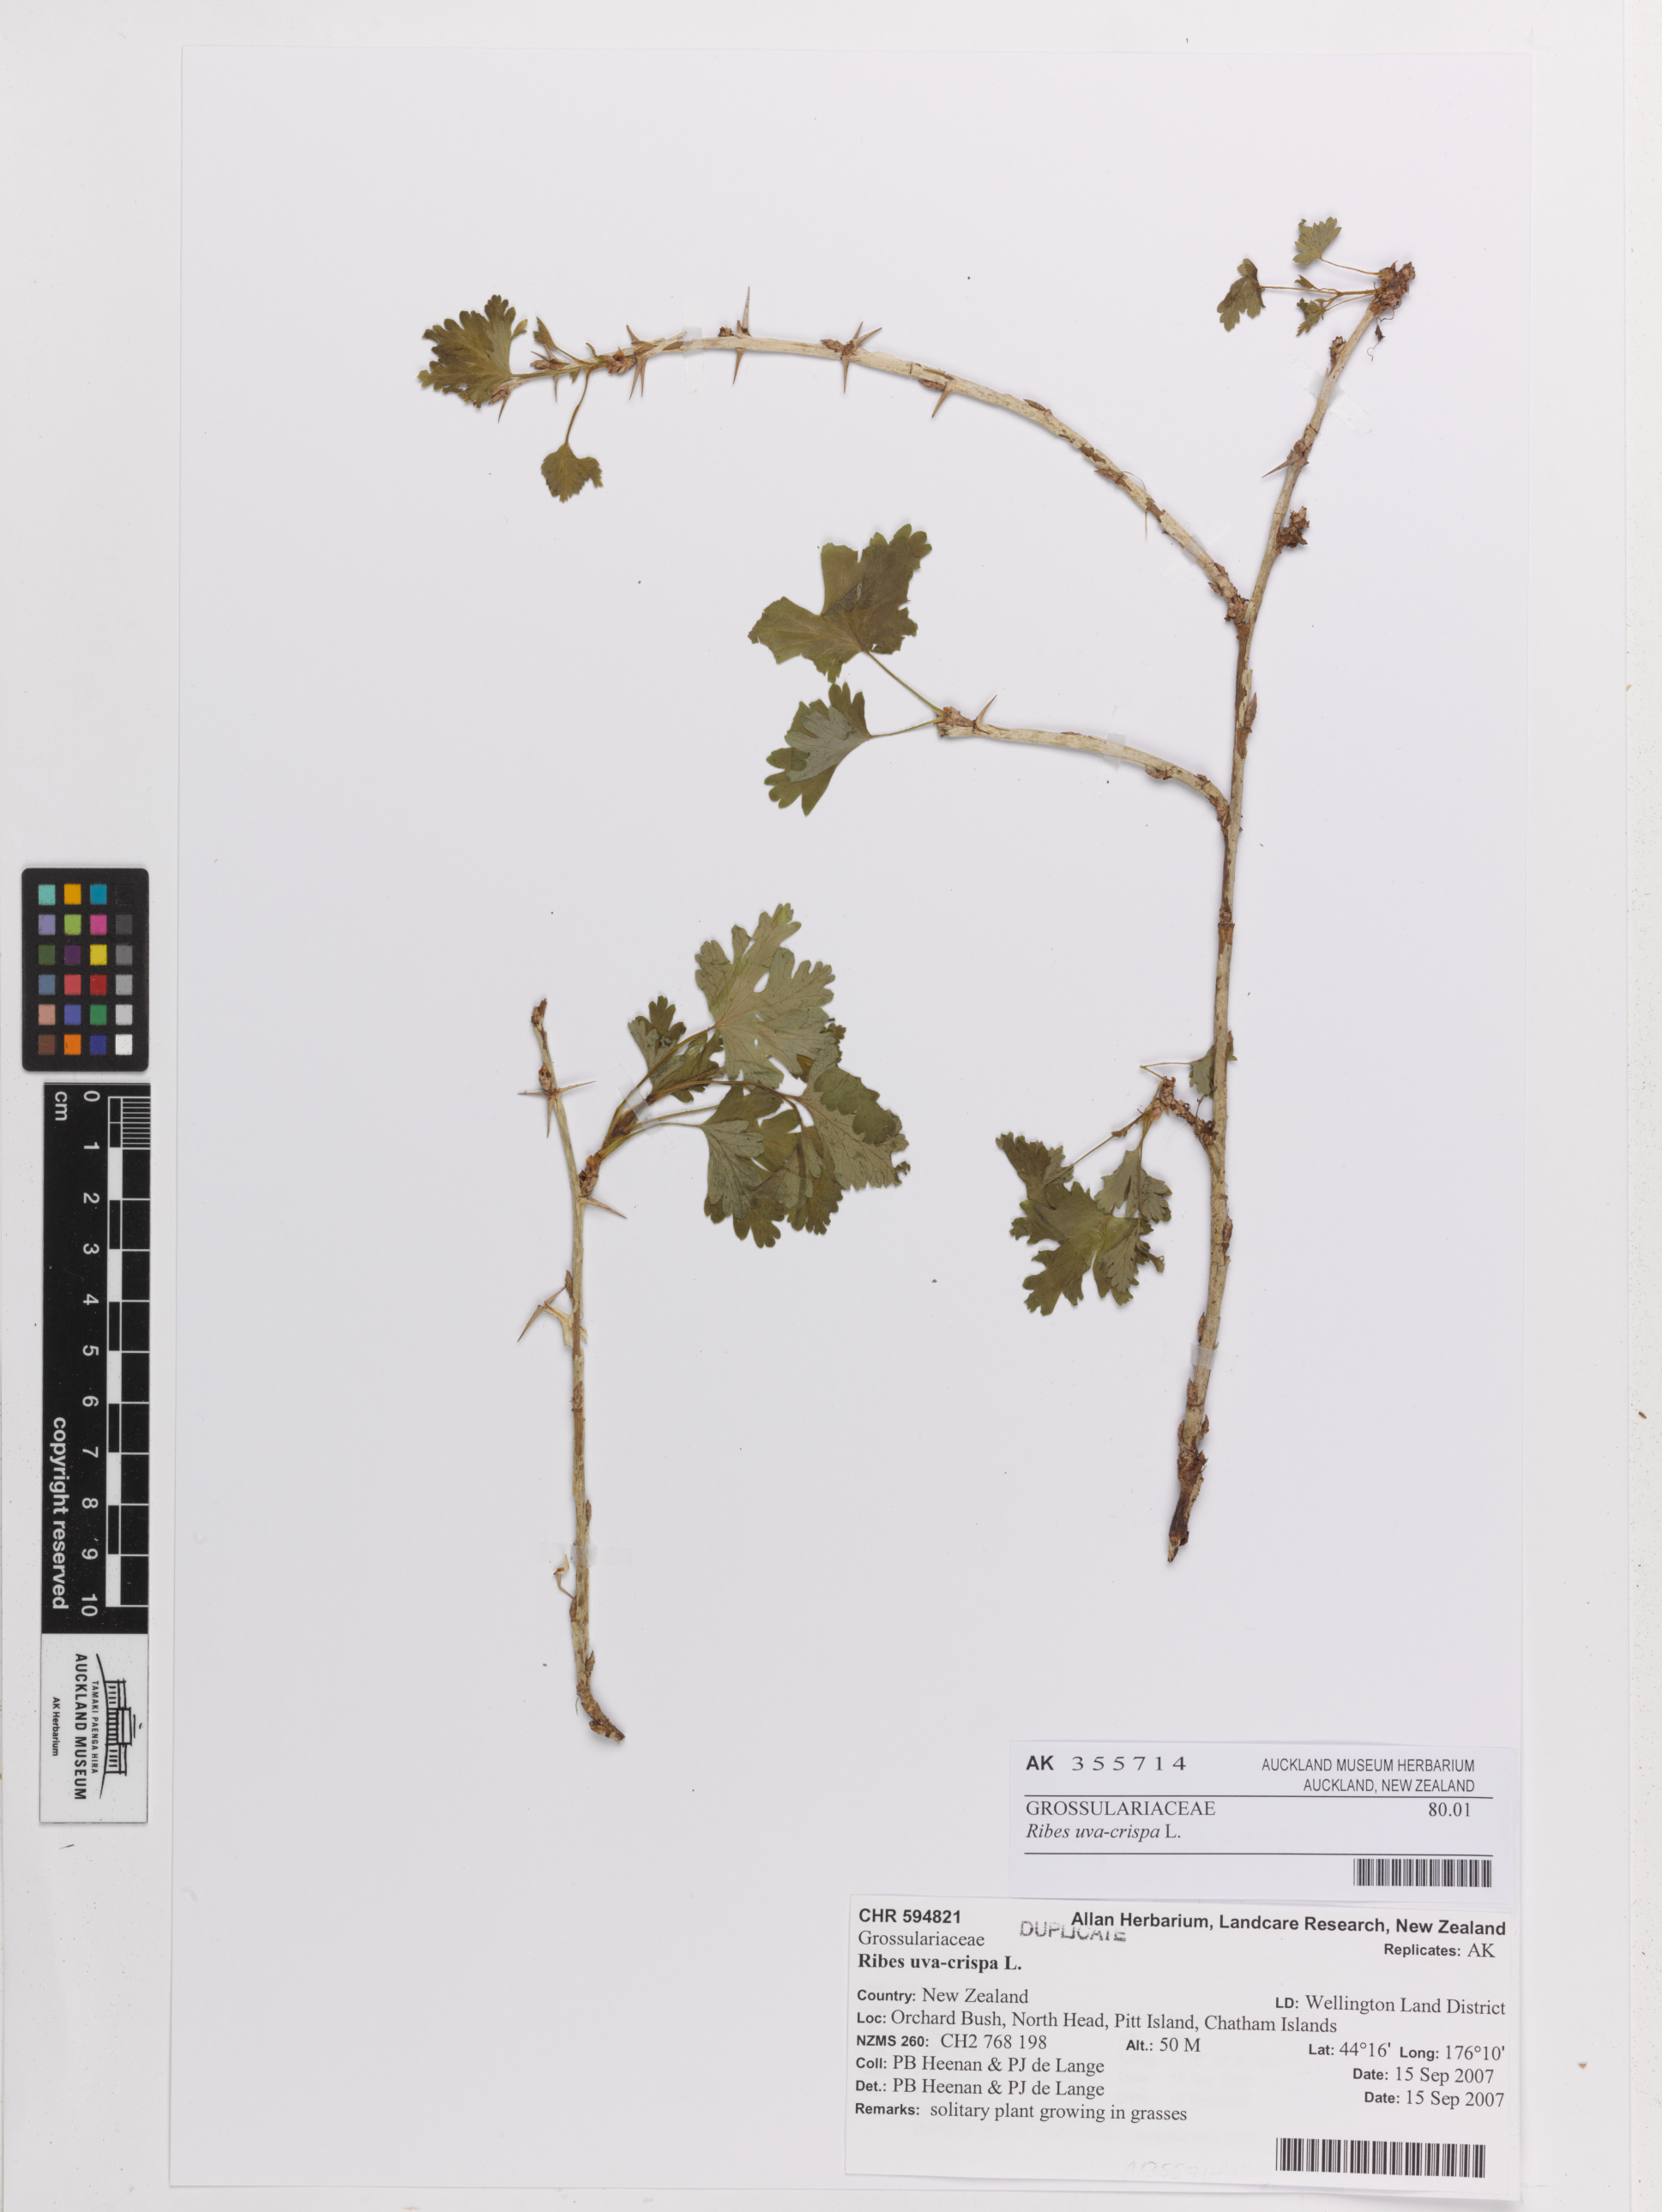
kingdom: Plantae
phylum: Tracheophyta
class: Magnoliopsida
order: Saxifragales
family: Grossulariaceae
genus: Ribes
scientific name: Ribes uva-crispa
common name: Gooseberry
